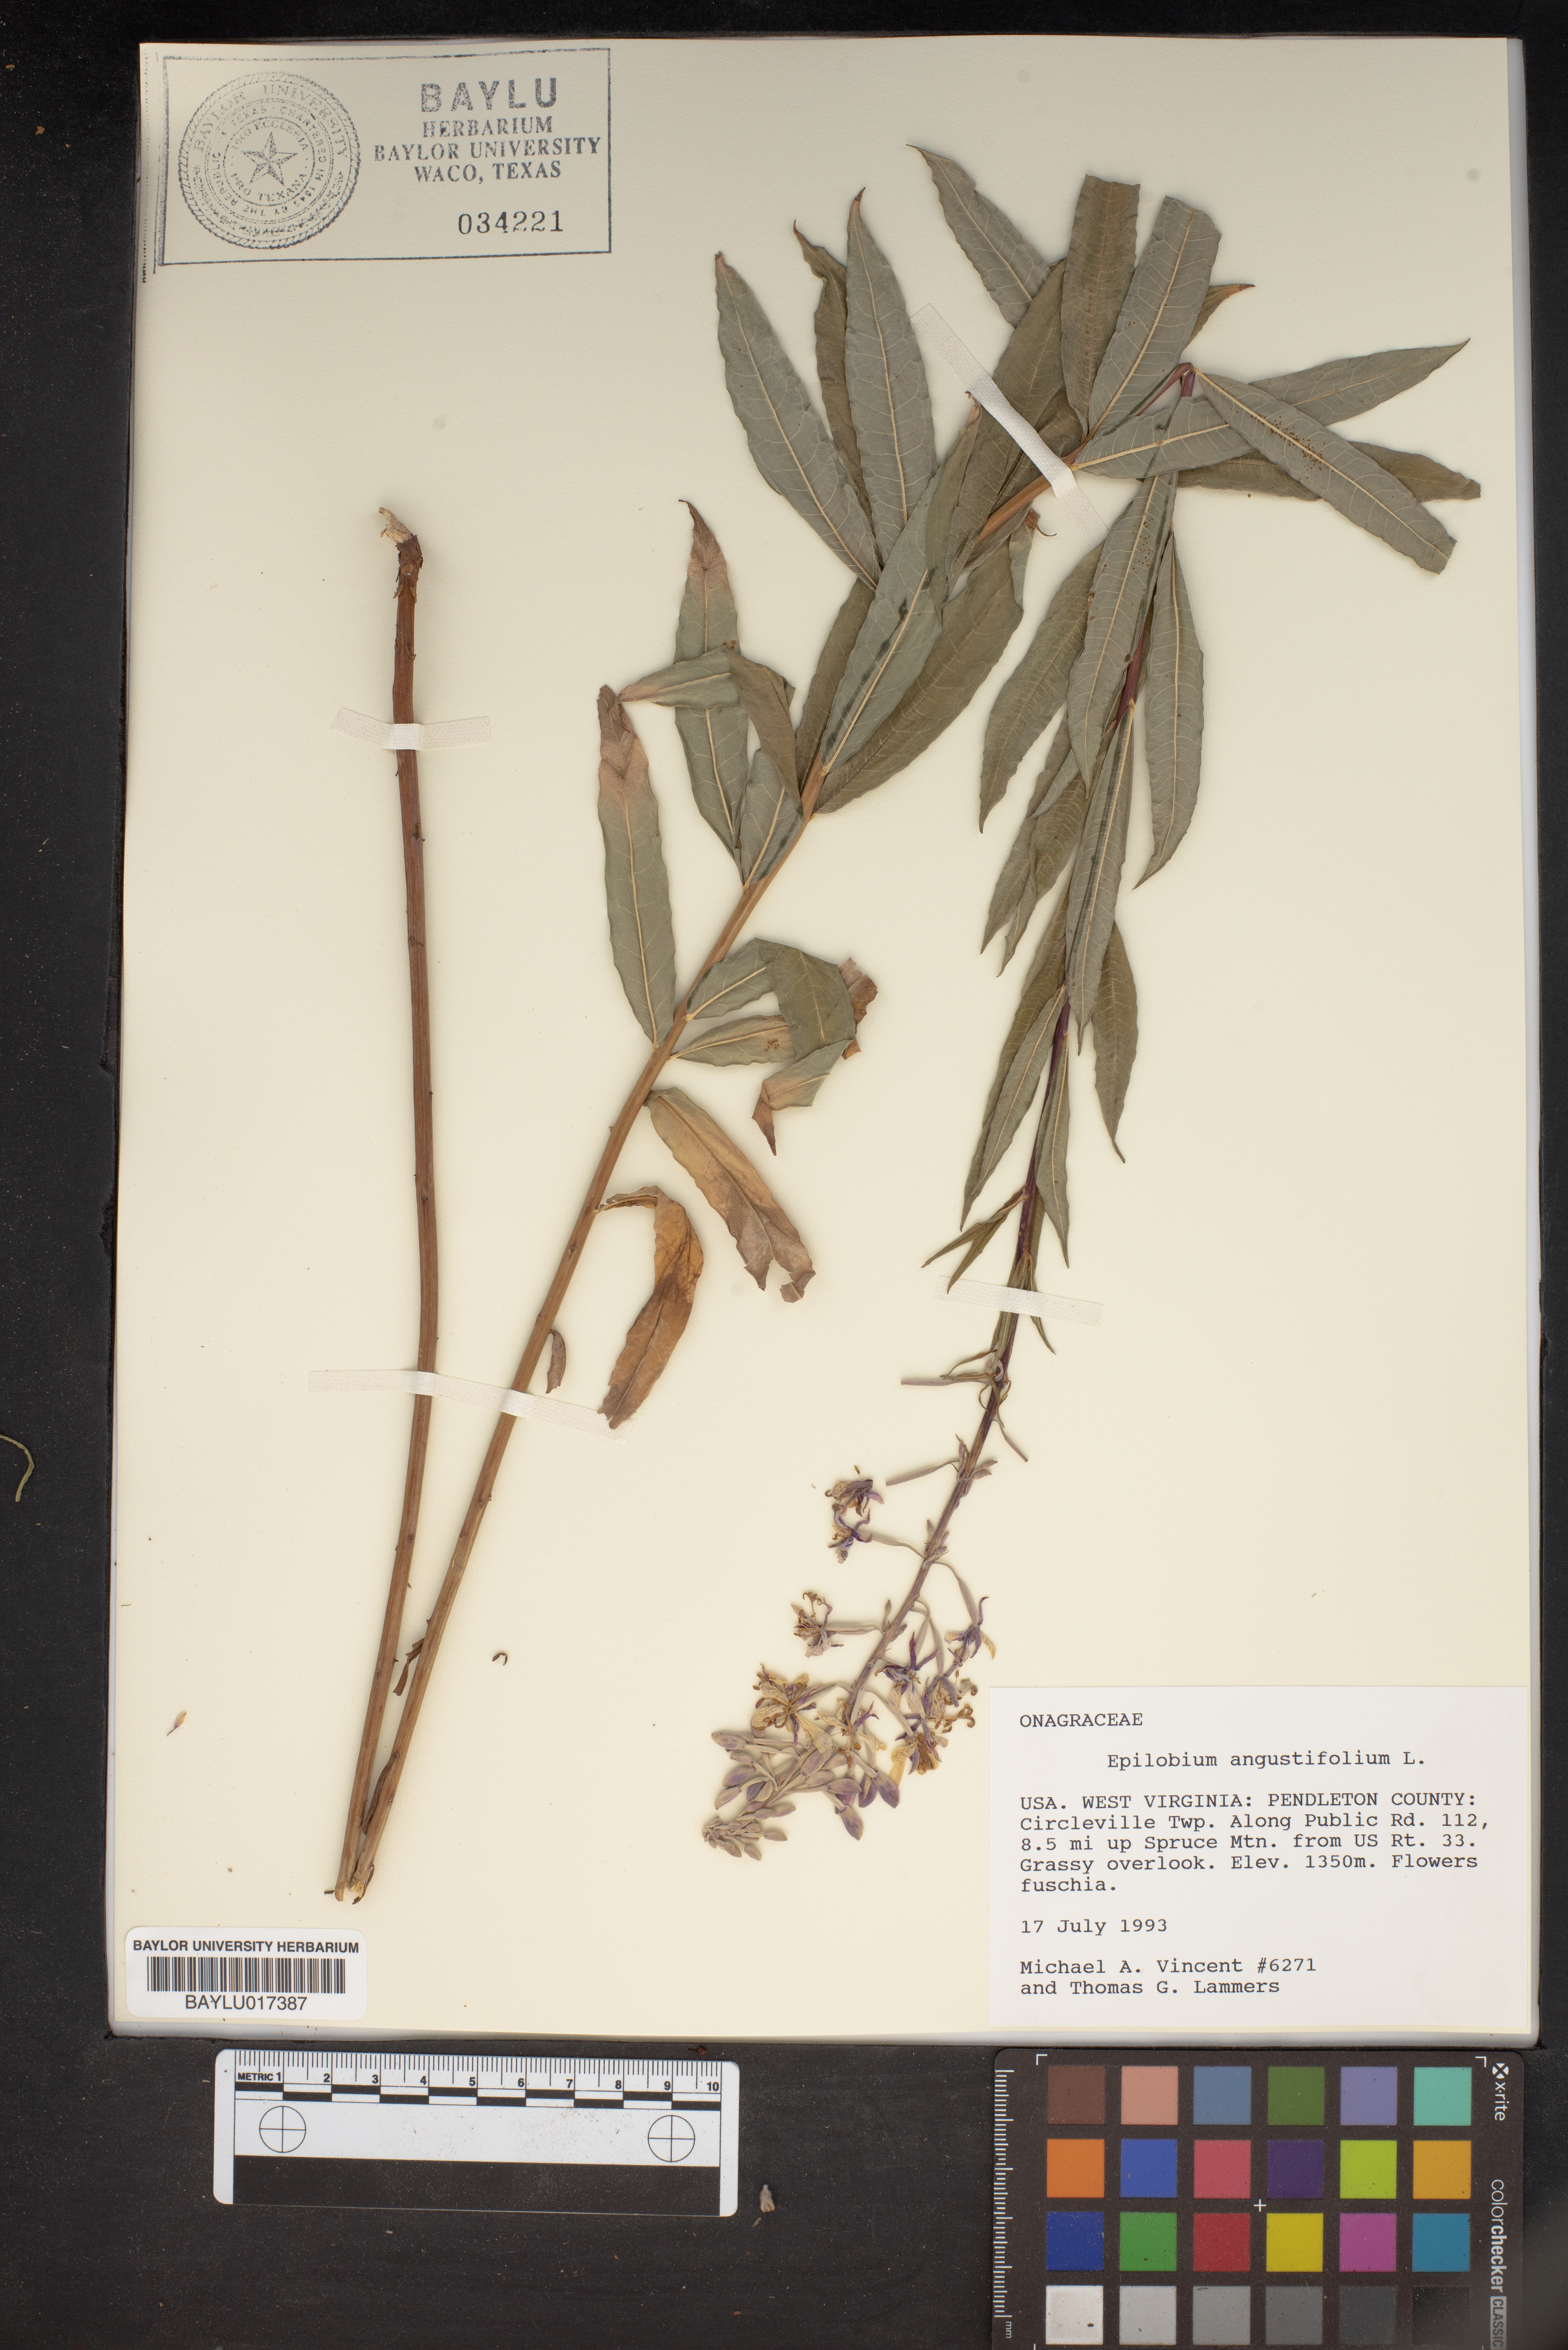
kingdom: Plantae
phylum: Tracheophyta
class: Magnoliopsida
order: Myrtales
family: Onagraceae
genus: Chamaenerion
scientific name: Chamaenerion dodonaei
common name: Rosemary-leaved willowherb
